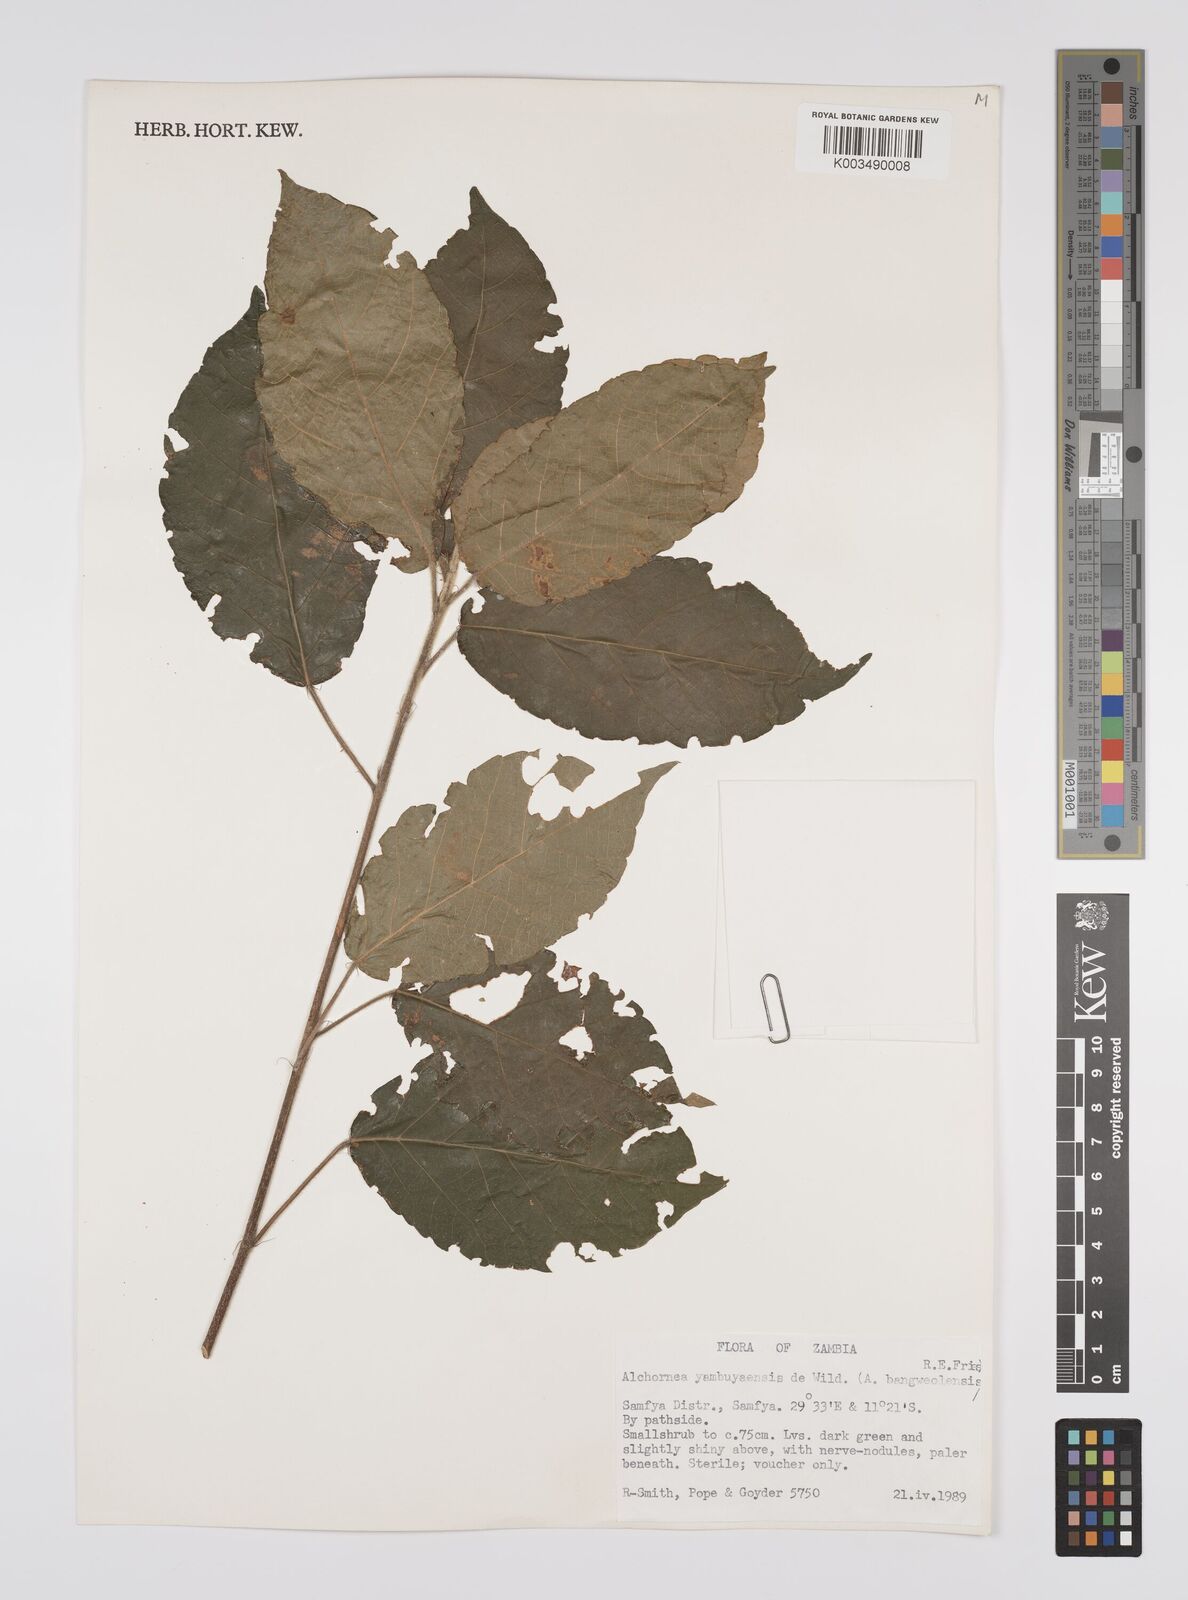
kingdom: Plantae
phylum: Tracheophyta
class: Magnoliopsida
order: Malpighiales
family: Euphorbiaceae
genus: Alchornea
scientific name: Alchornea yambuyaensis
